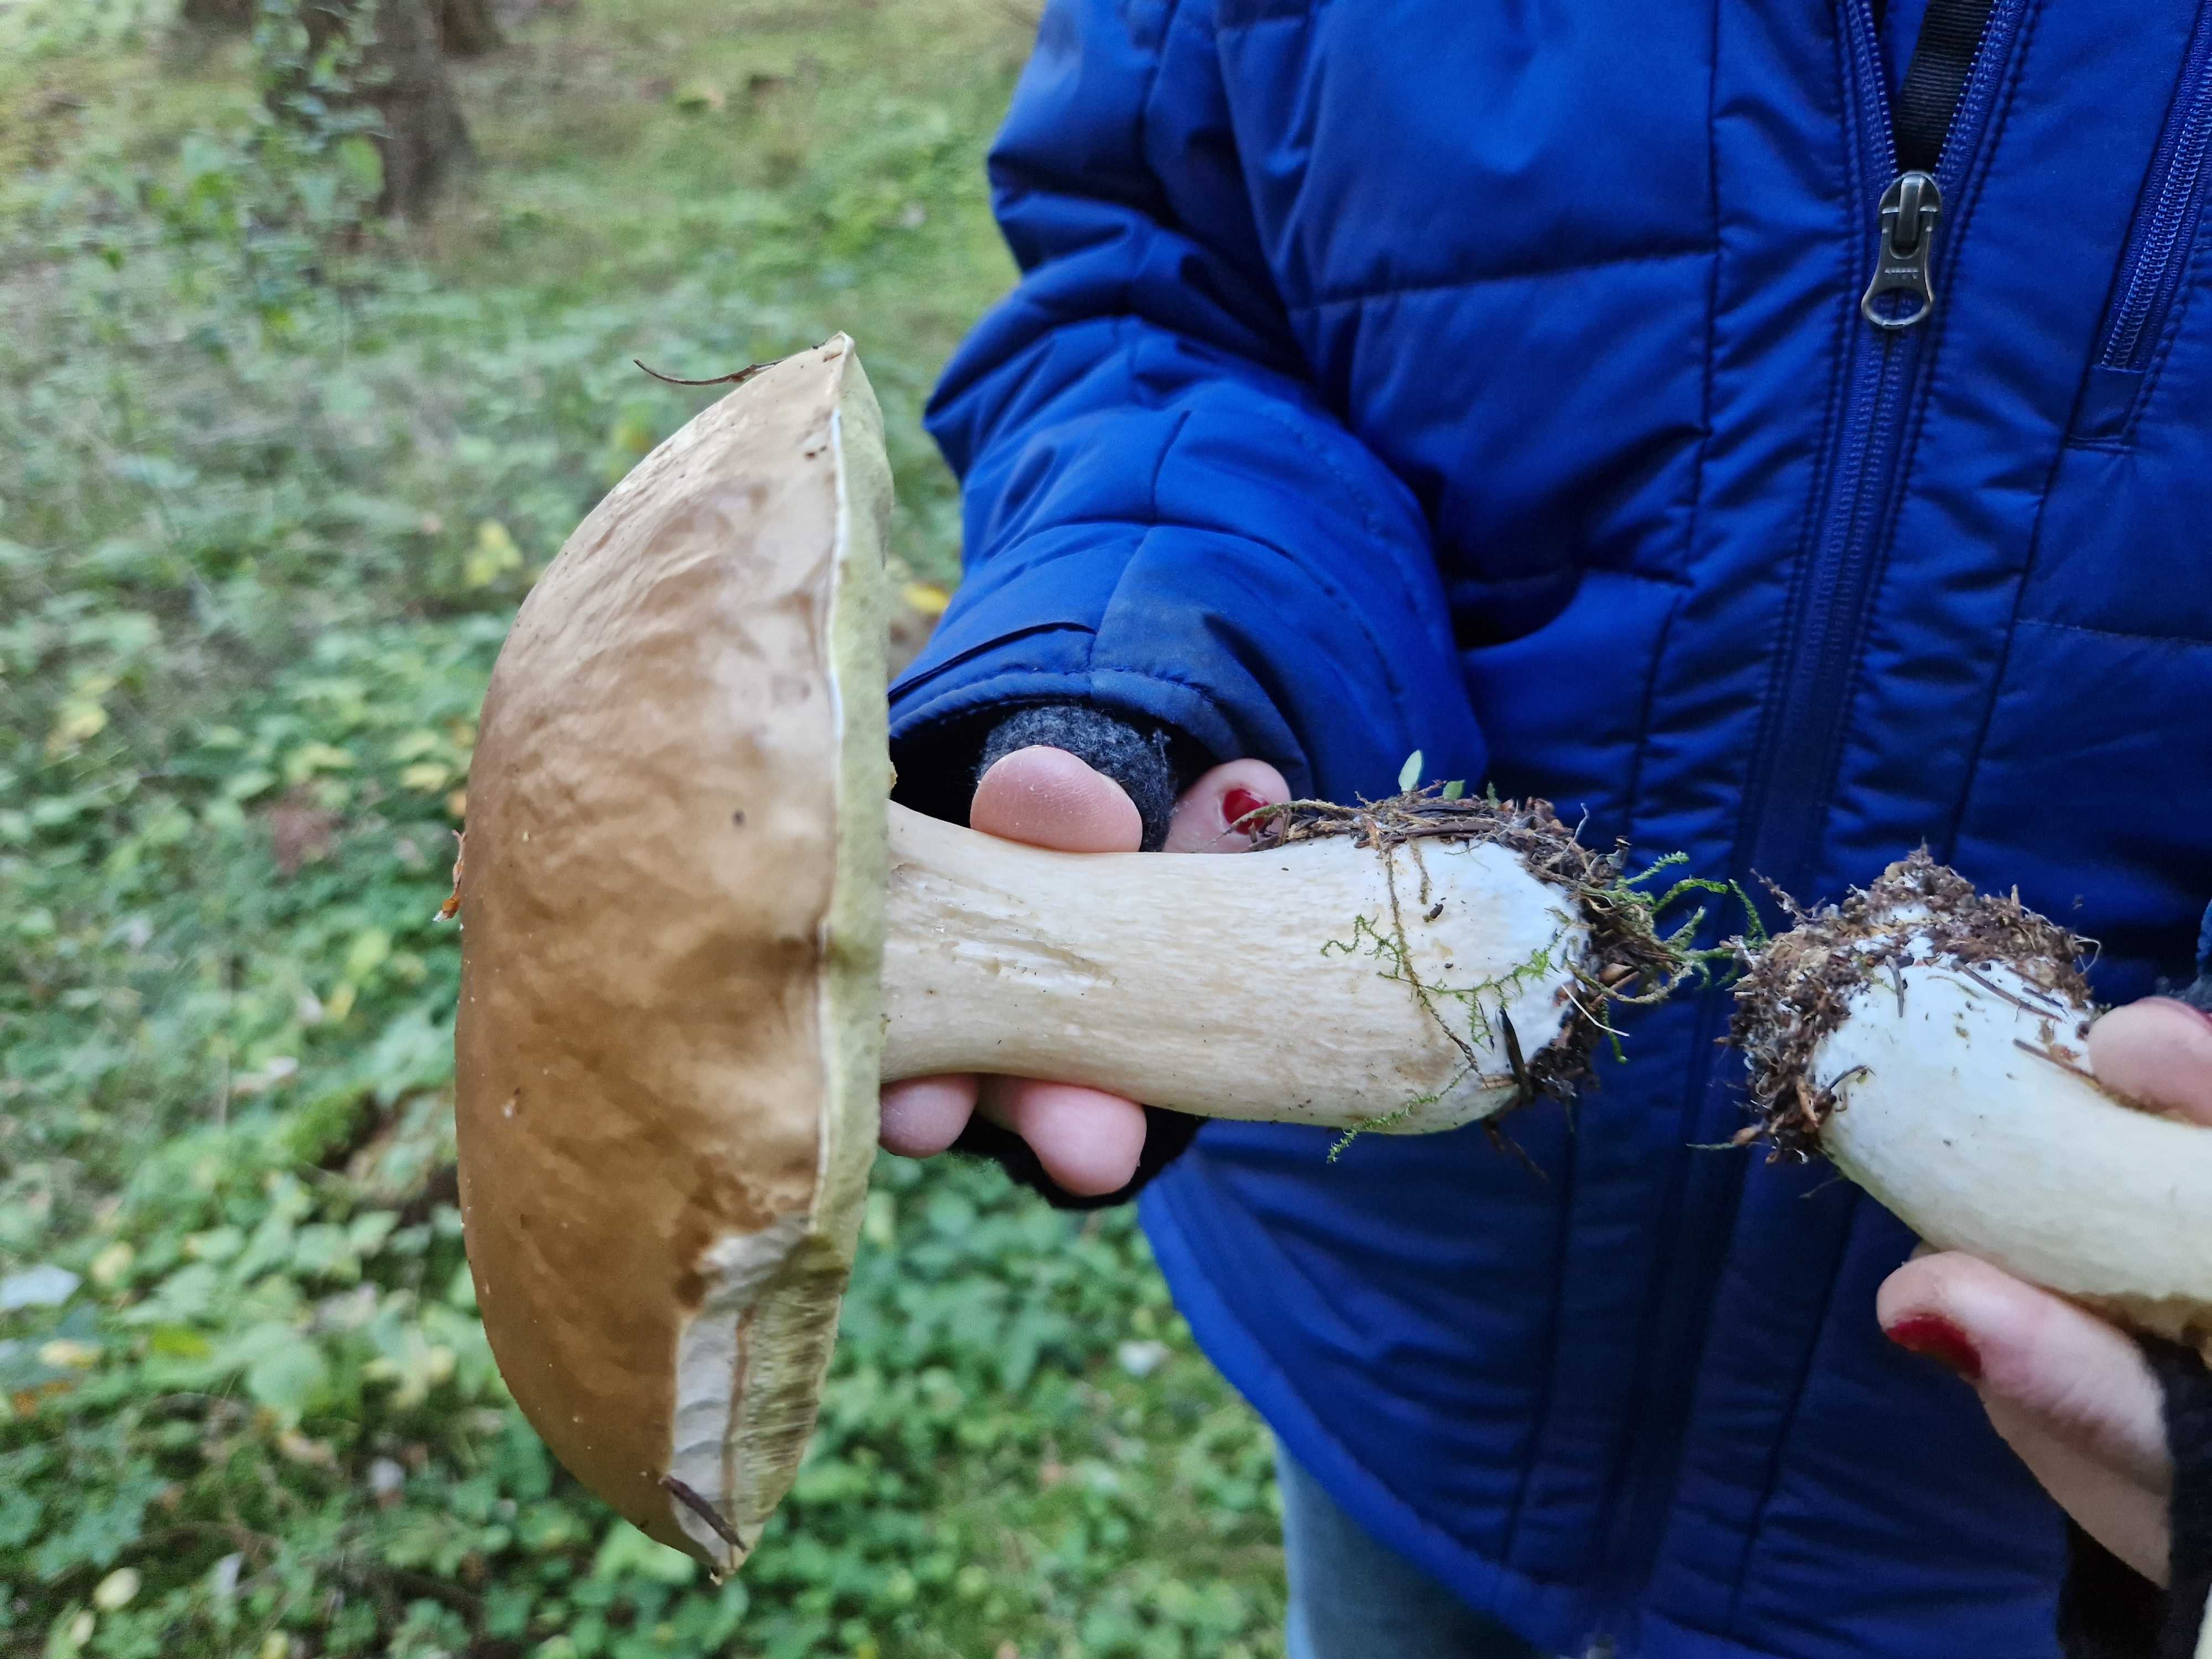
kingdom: Fungi
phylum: Basidiomycota
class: Agaricomycetes
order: Boletales
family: Boletaceae
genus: Boletus
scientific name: Boletus edulis
